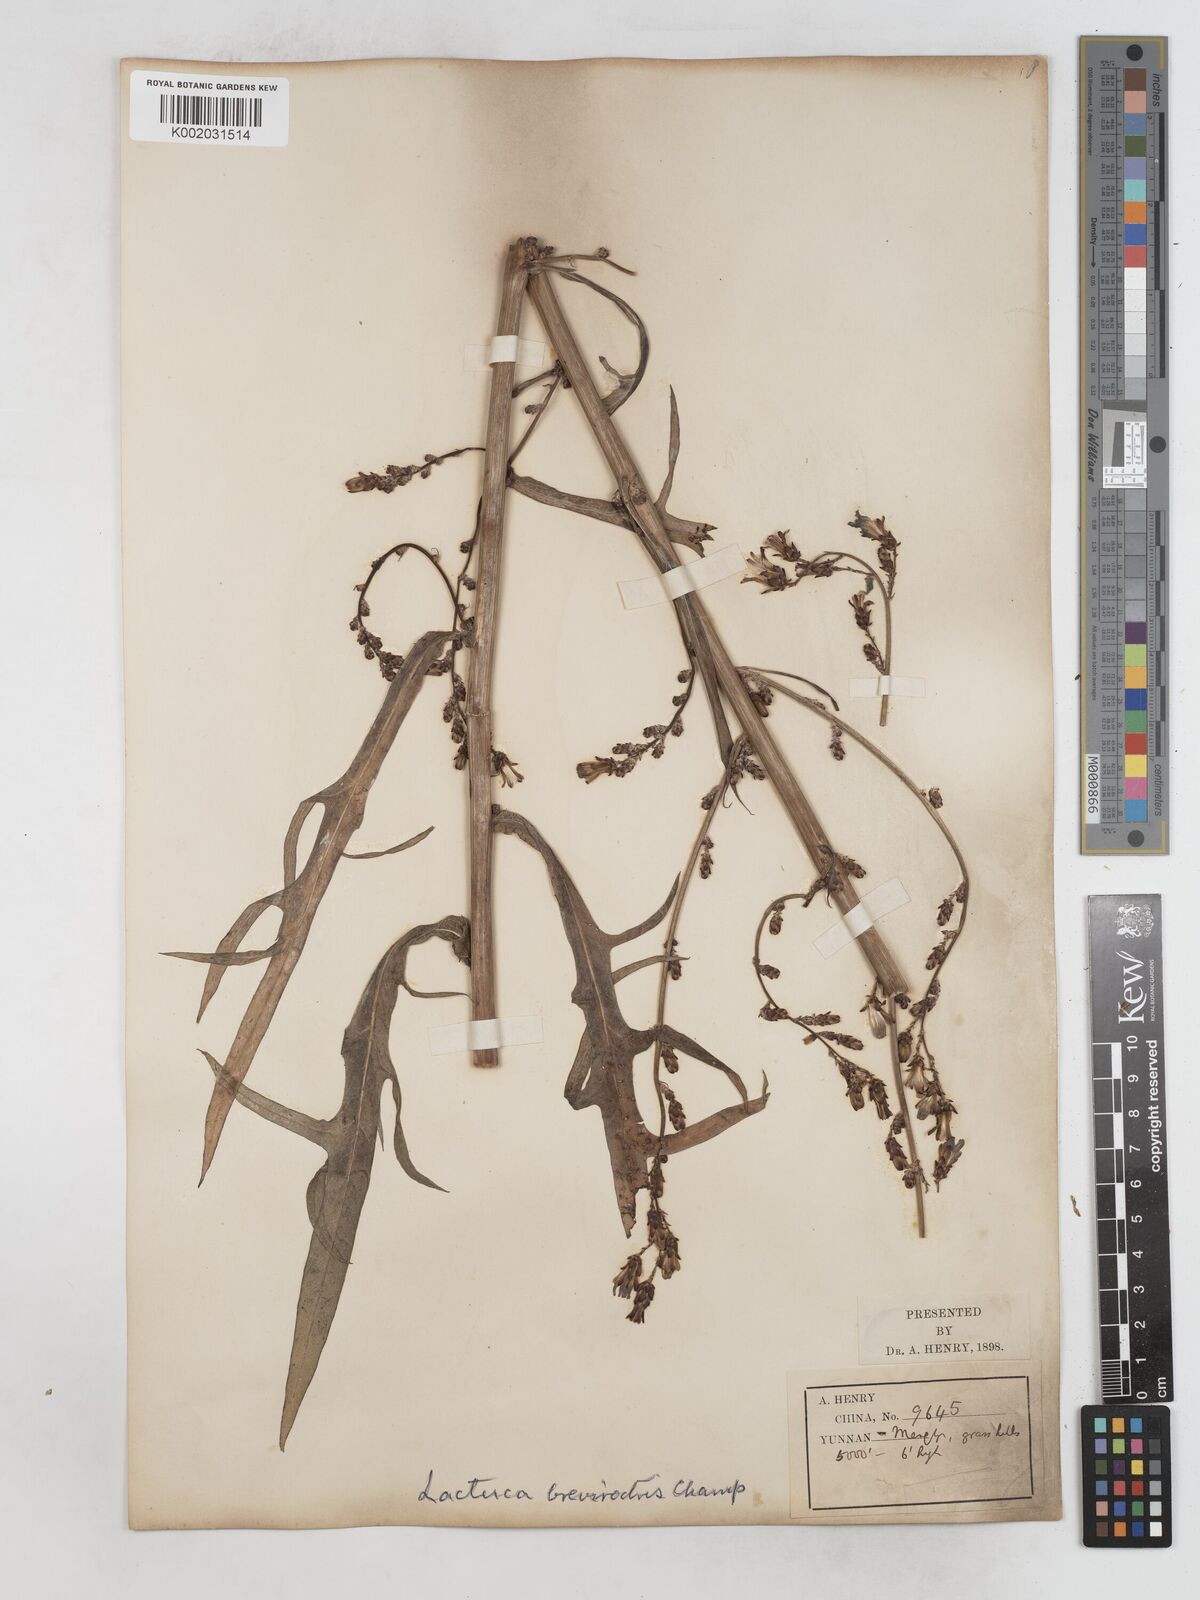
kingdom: Plantae
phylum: Tracheophyta
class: Magnoliopsida
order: Asterales
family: Asteraceae
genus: Lactuca
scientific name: Lactuca indica
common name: Wild lettuce
